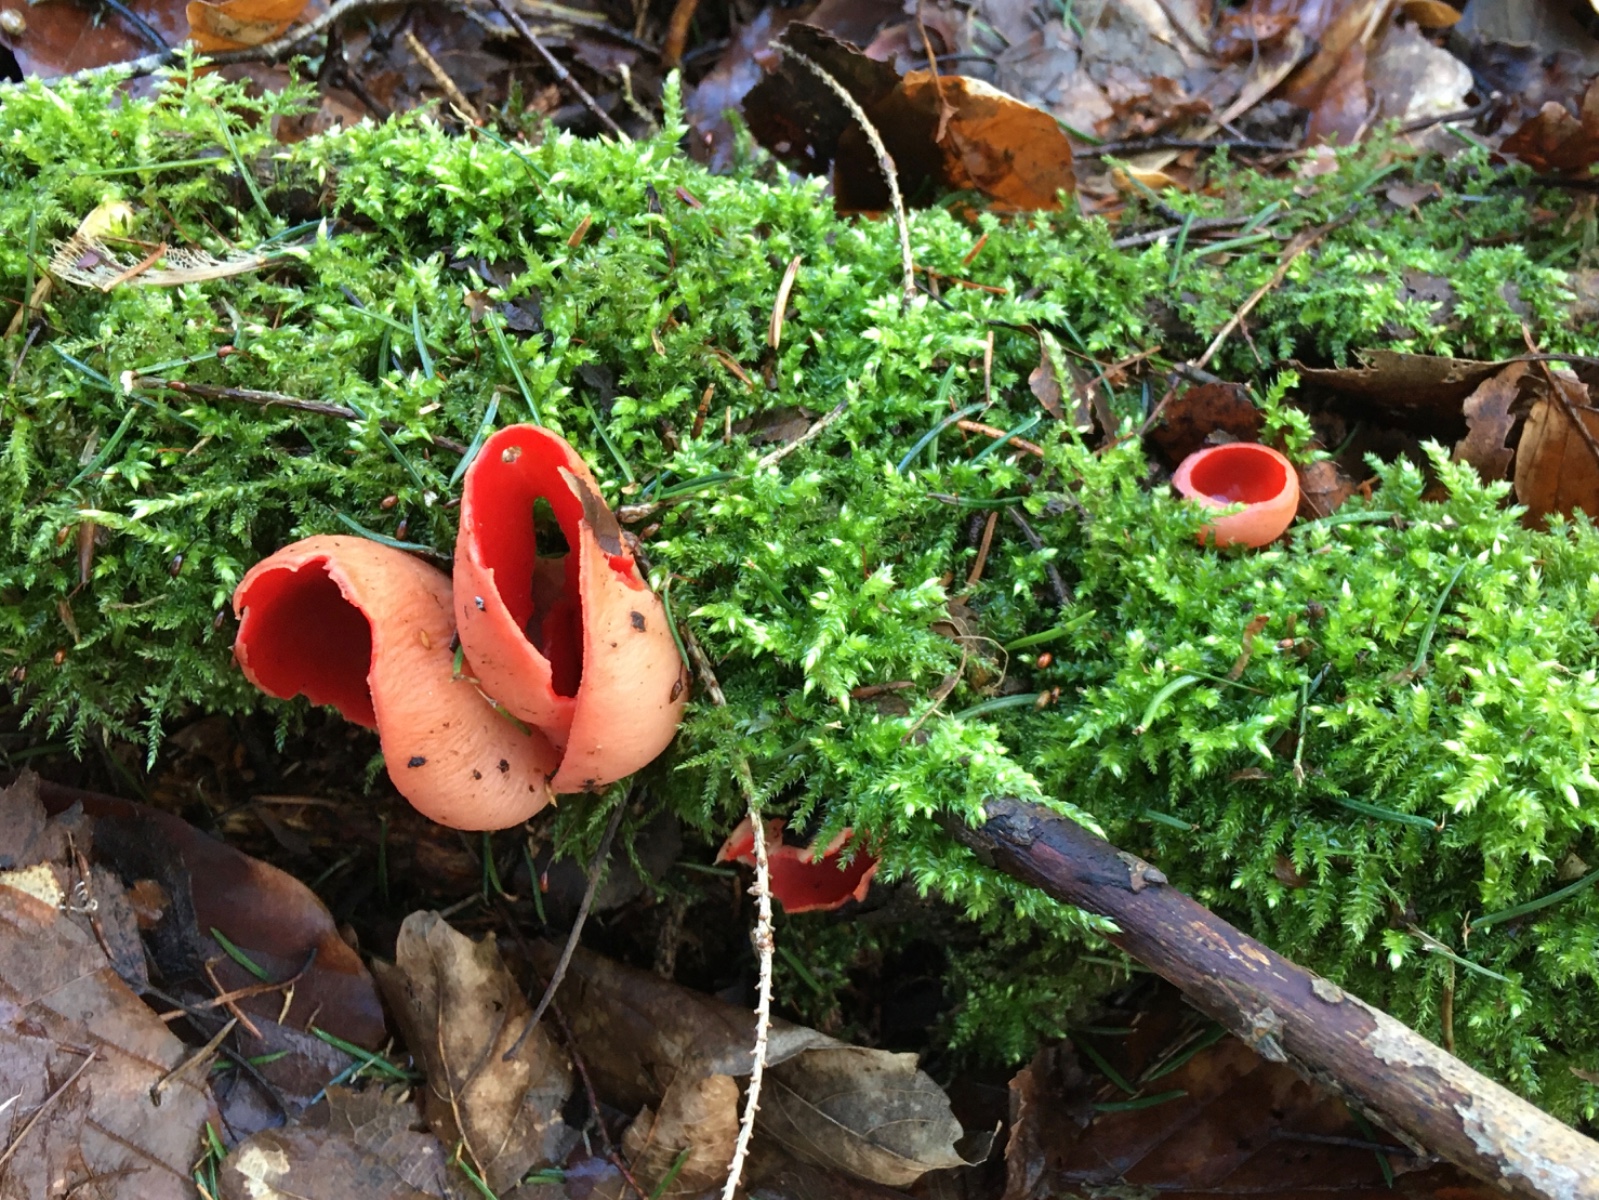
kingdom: Fungi
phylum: Ascomycota
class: Pezizomycetes
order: Pezizales
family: Sarcoscyphaceae
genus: Sarcoscypha
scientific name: Sarcoscypha austriaca
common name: krølhåret pragtbæger
